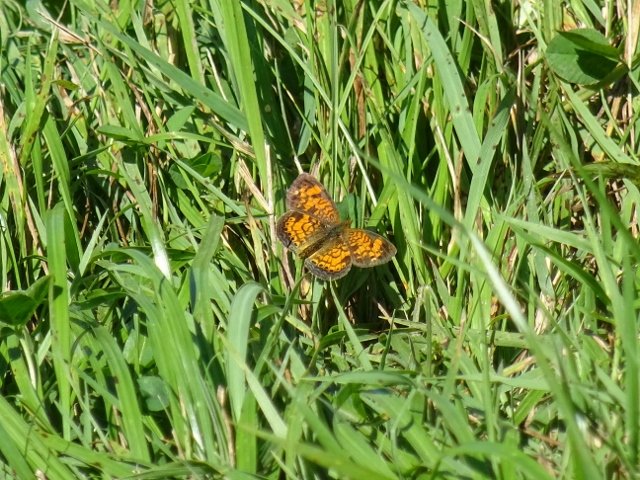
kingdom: Animalia
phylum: Arthropoda
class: Insecta
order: Lepidoptera
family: Nymphalidae
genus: Phyciodes
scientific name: Phyciodes tharos
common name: Pearl Crescent
